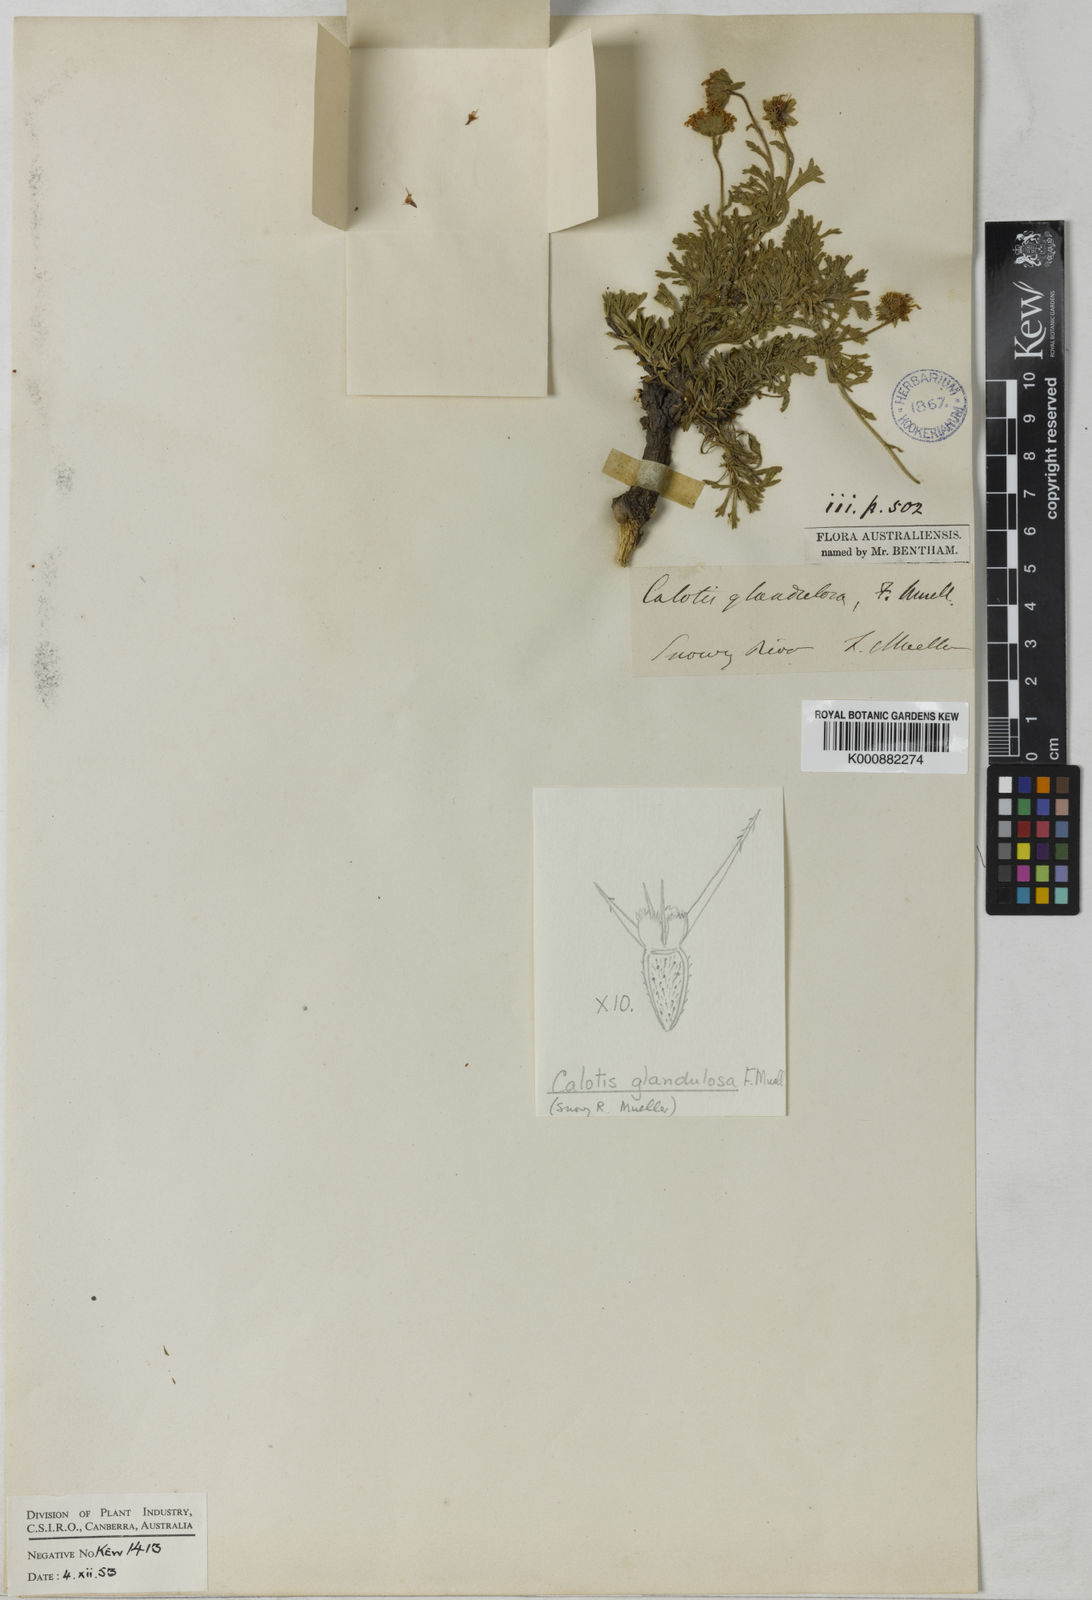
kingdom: Plantae
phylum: Tracheophyta
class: Magnoliopsida
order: Asterales
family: Asteraceae
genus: Calotis
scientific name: Calotis glandulosa
